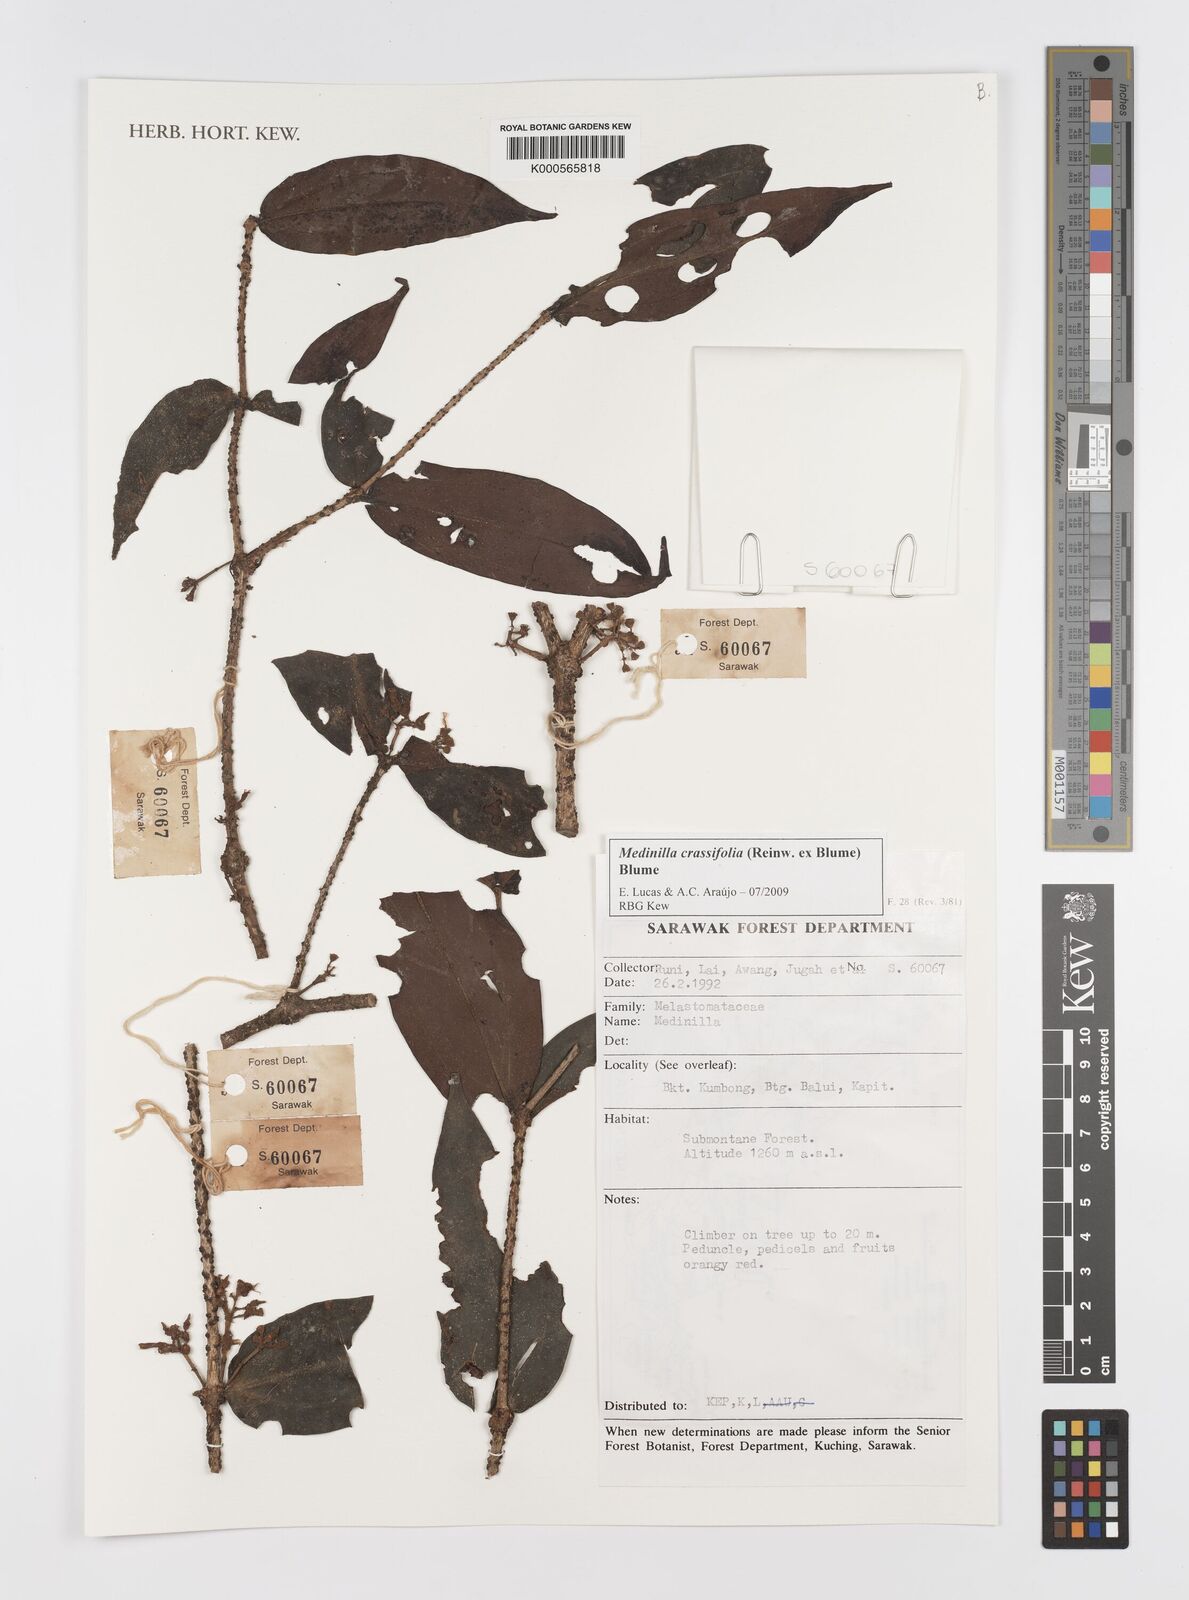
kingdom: Plantae
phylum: Tracheophyta
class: Magnoliopsida
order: Myrtales
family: Melastomataceae
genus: Medinilla
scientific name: Medinilla crassifolia
